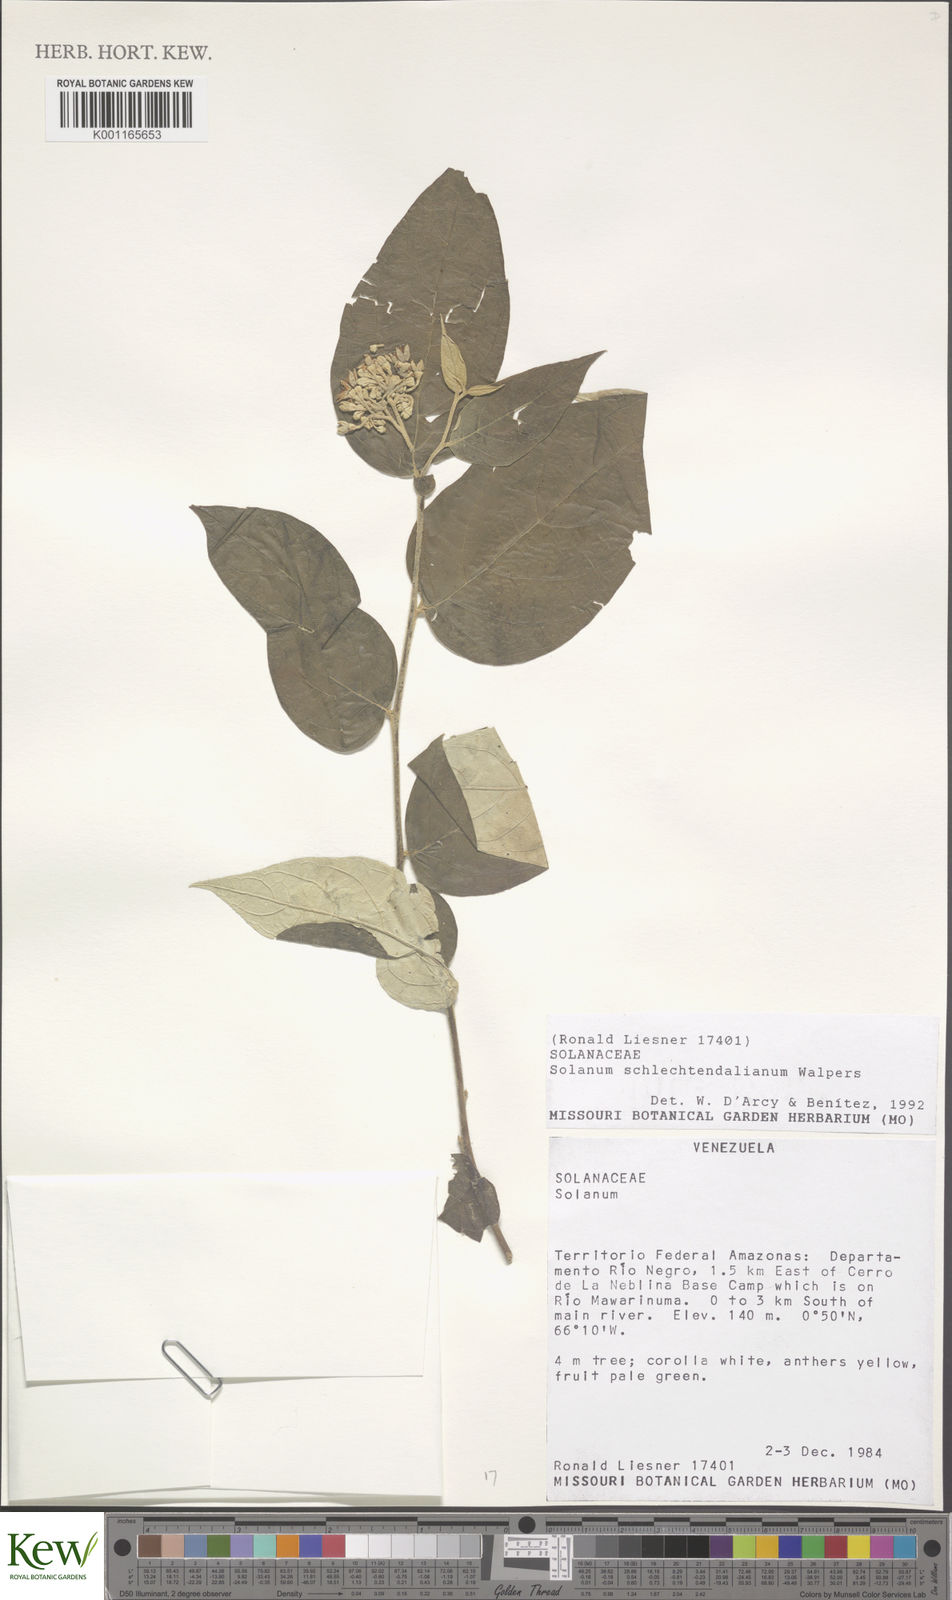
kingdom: Plantae
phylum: Tracheophyta
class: Magnoliopsida
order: Solanales
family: Solanaceae
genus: Solanum
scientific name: Solanum schlechtendalianum
